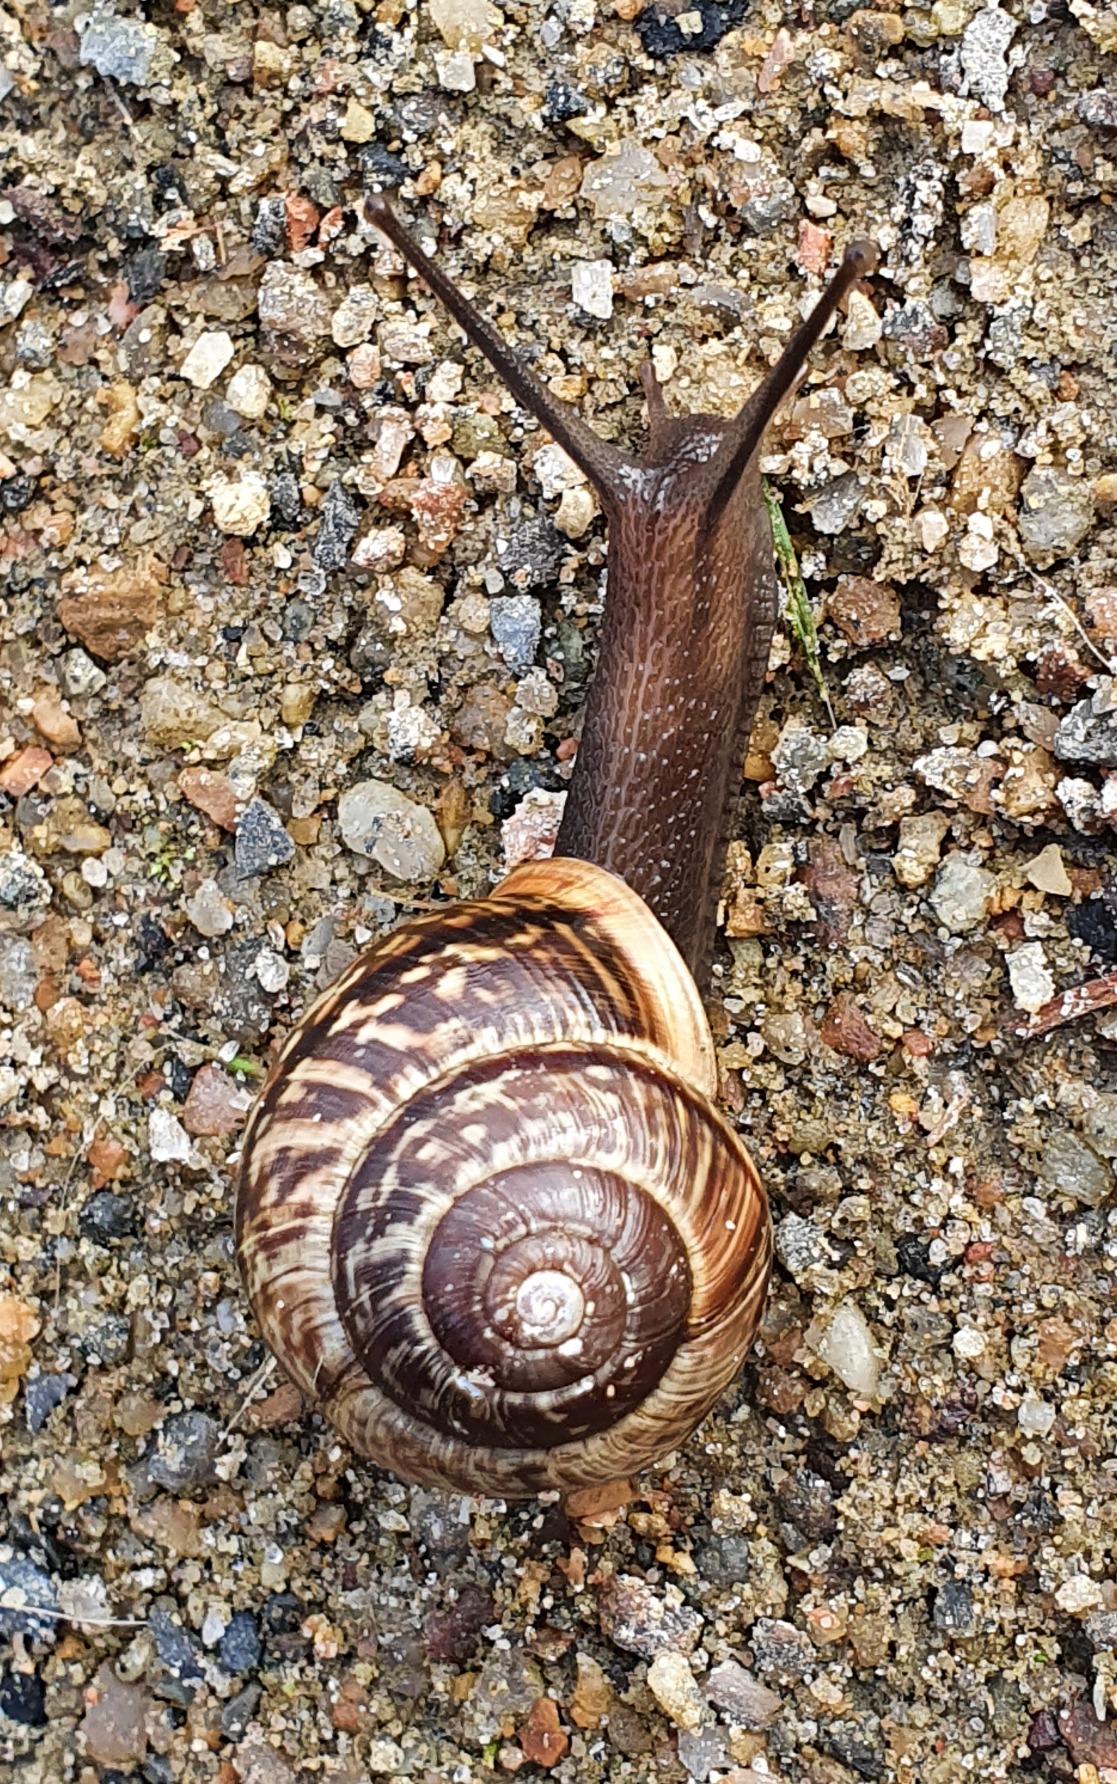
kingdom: Animalia
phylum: Mollusca
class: Gastropoda
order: Stylommatophora
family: Helicidae
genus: Arianta
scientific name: Arianta arbustorum
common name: Kratsnegl
